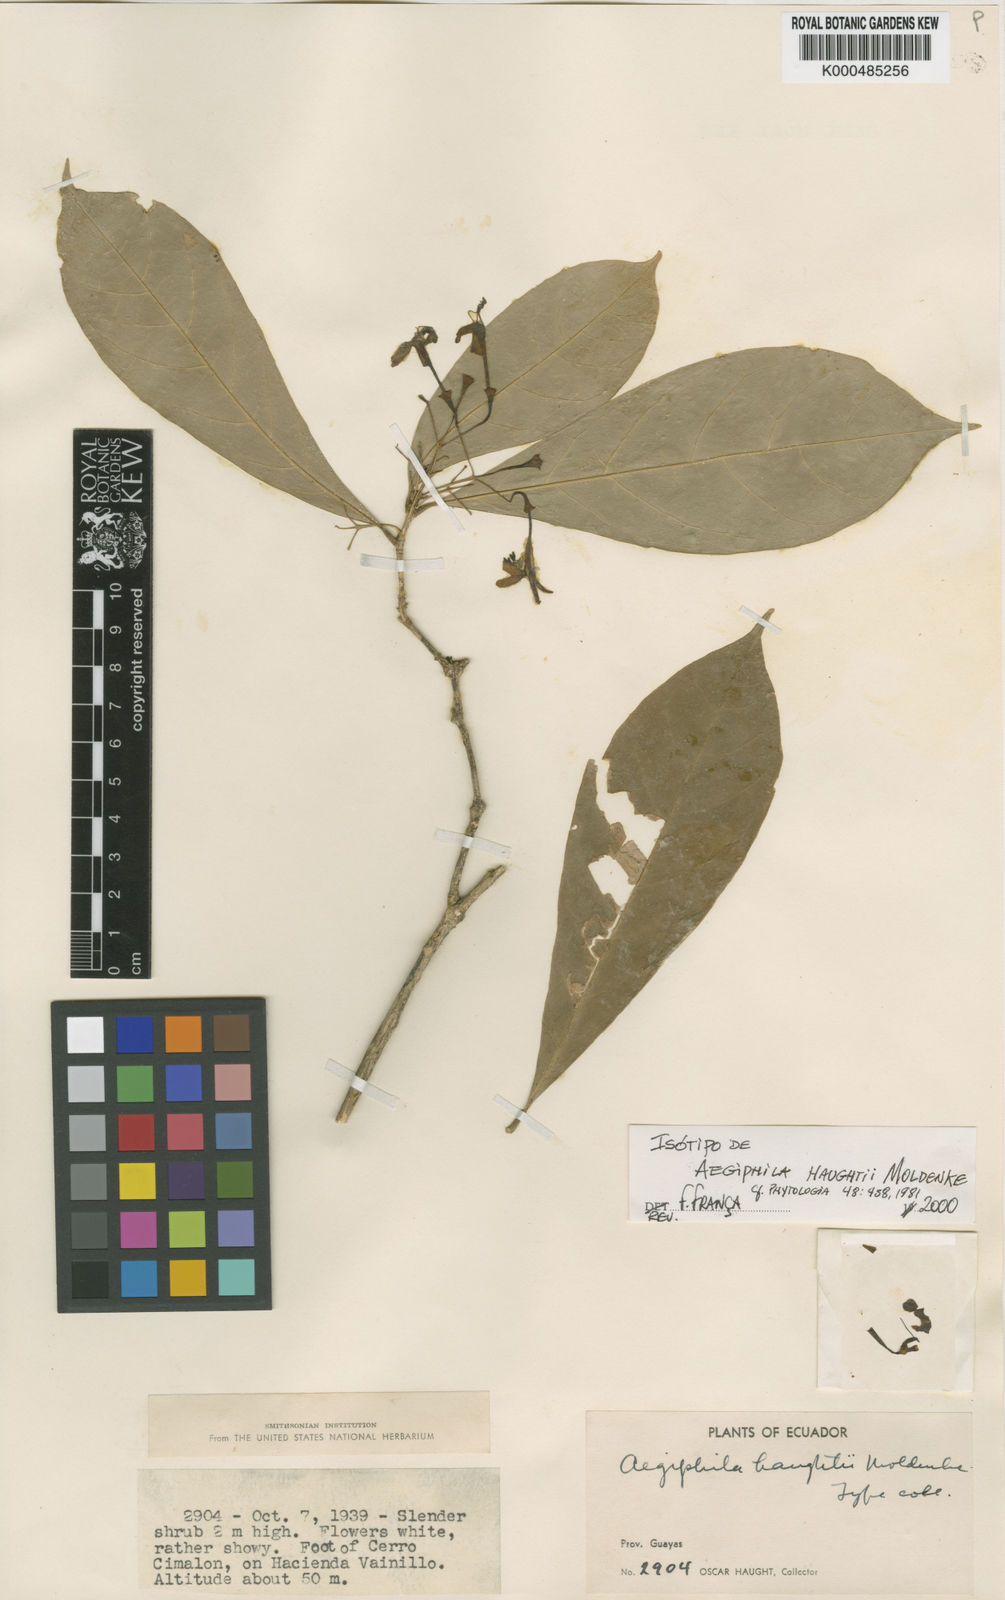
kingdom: Plantae
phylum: Tracheophyta
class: Magnoliopsida
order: Lamiales
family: Lamiaceae
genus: Aegiphila
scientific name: Aegiphila ulei
